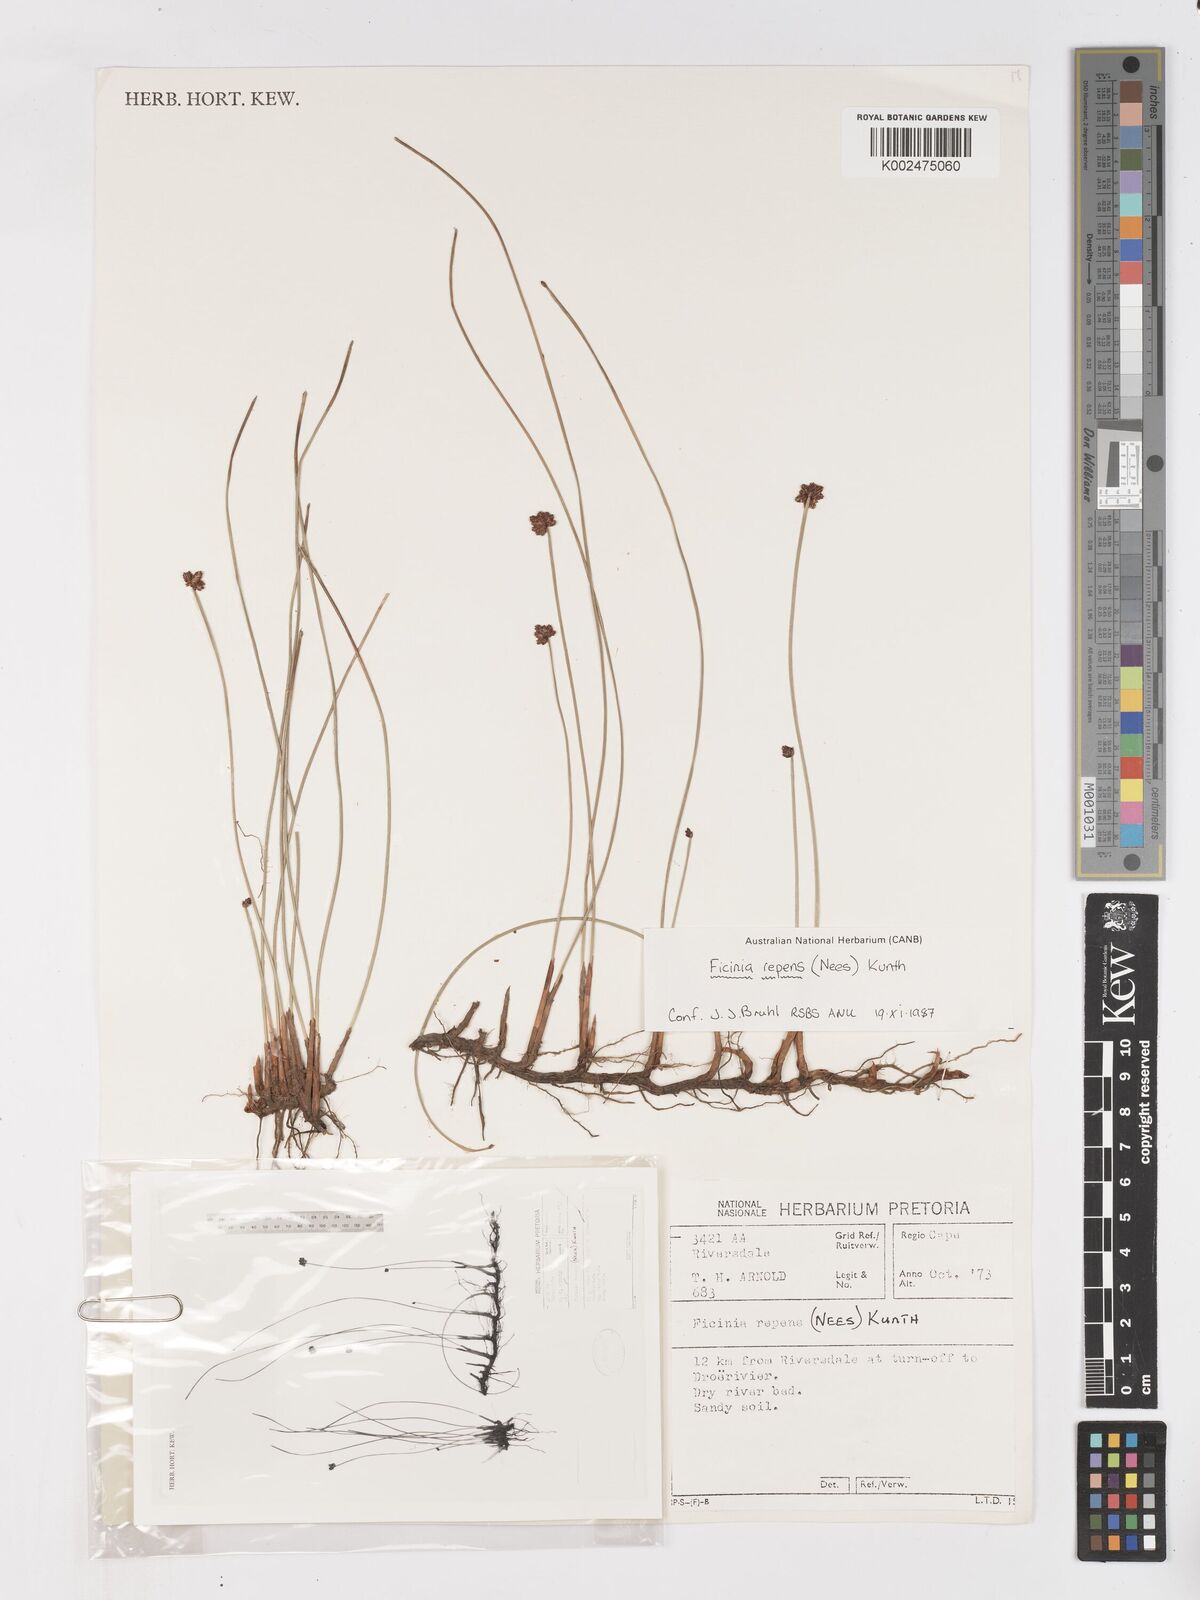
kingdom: Plantae
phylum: Tracheophyta
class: Liliopsida
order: Poales
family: Cyperaceae
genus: Ficinia
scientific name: Ficinia repens
